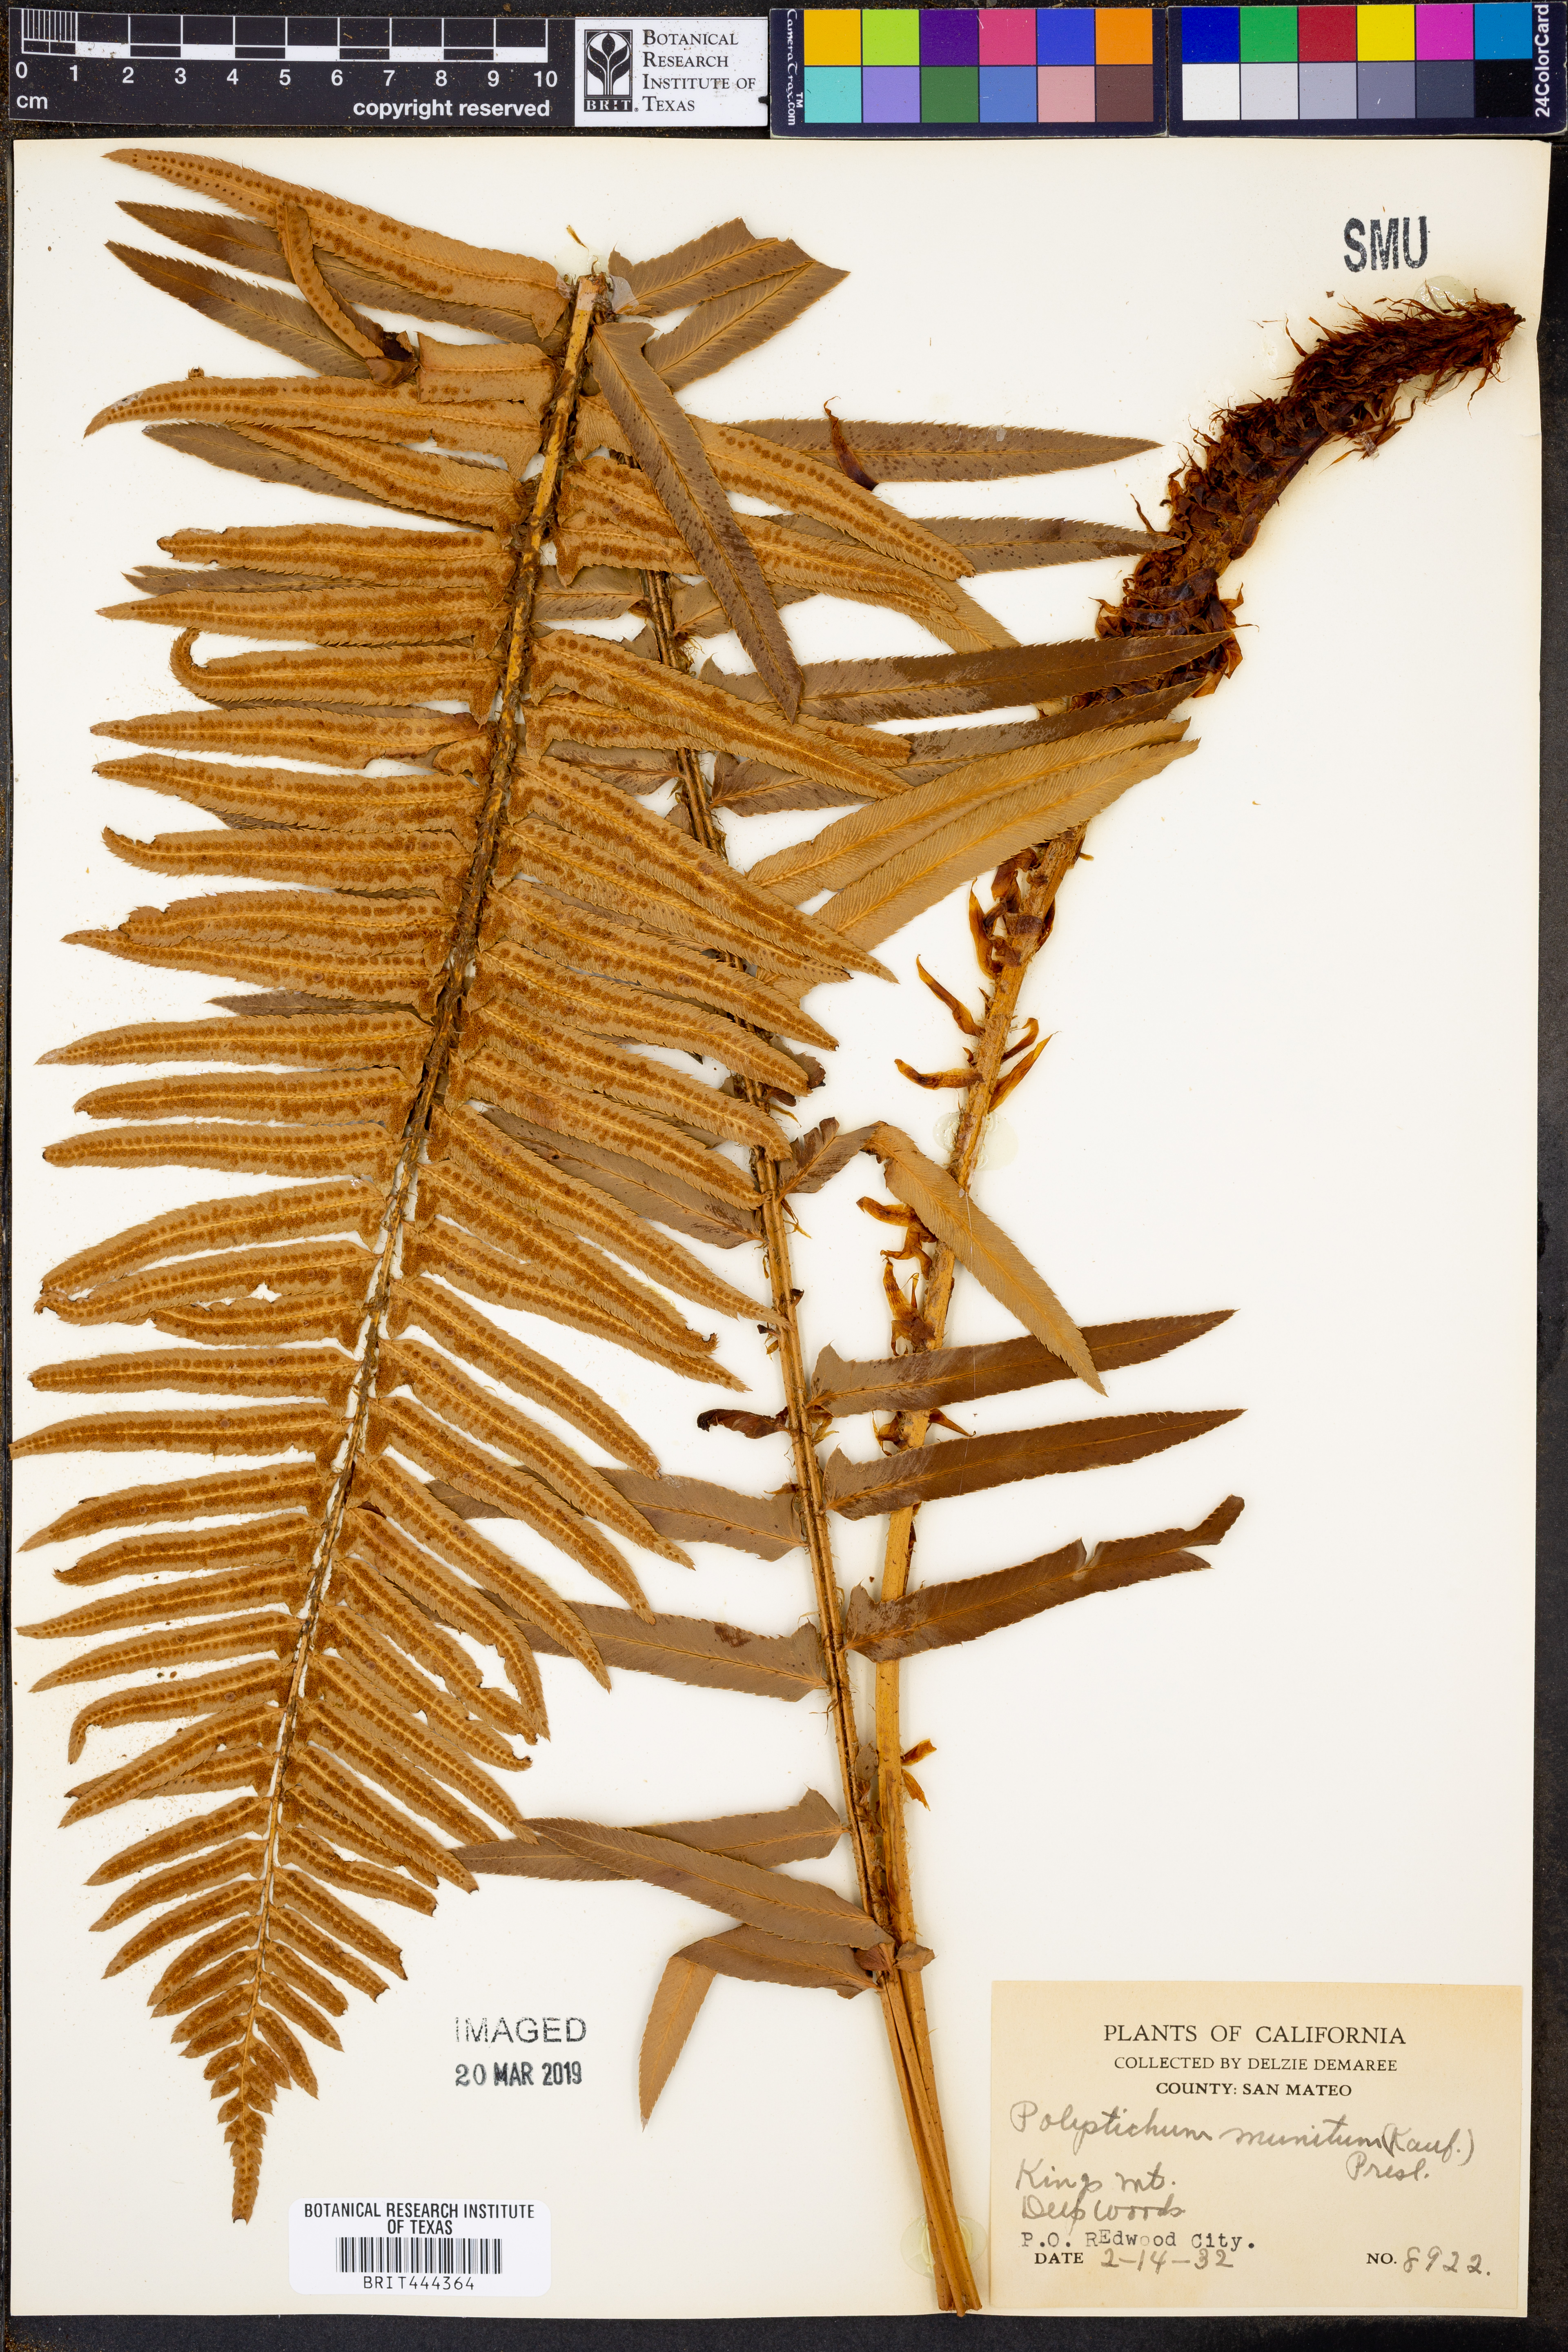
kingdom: Plantae
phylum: Tracheophyta
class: Polypodiopsida
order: Polypodiales
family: Dryopteridaceae
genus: Polystichum
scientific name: Polystichum munitum
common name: Western sword-fern
